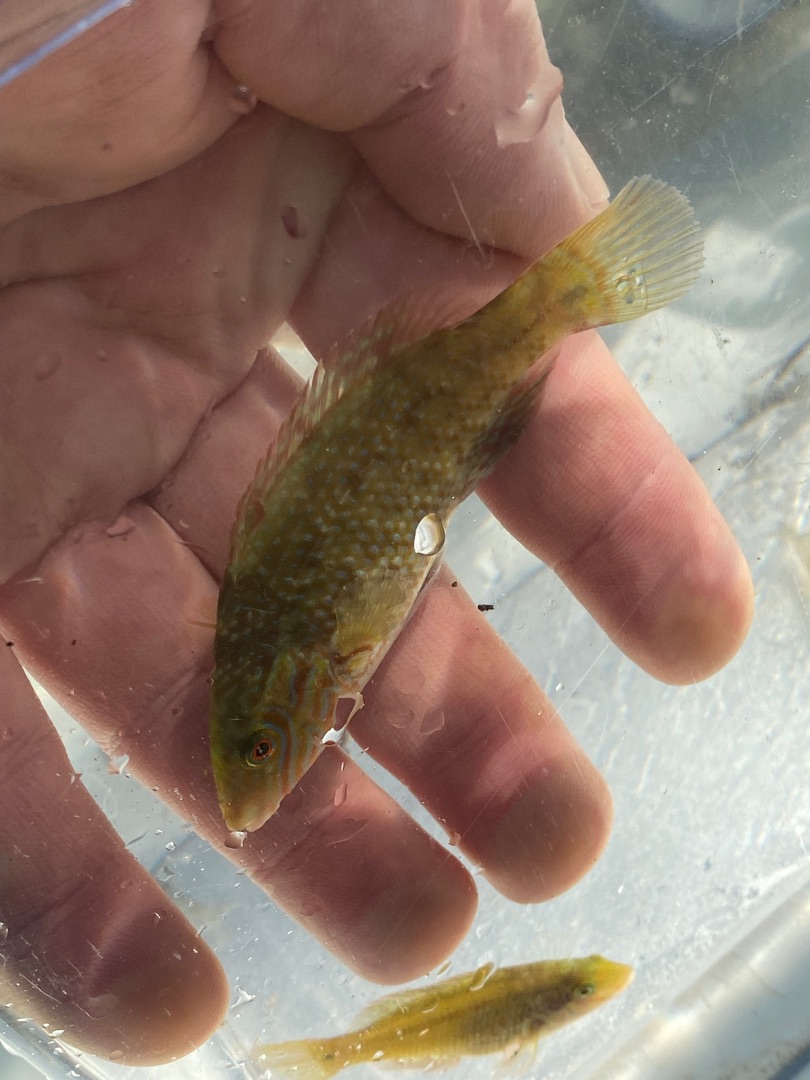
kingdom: Animalia
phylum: Chordata
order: Perciformes
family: Labridae
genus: Symphodus
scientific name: Symphodus melops
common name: Savgylte
